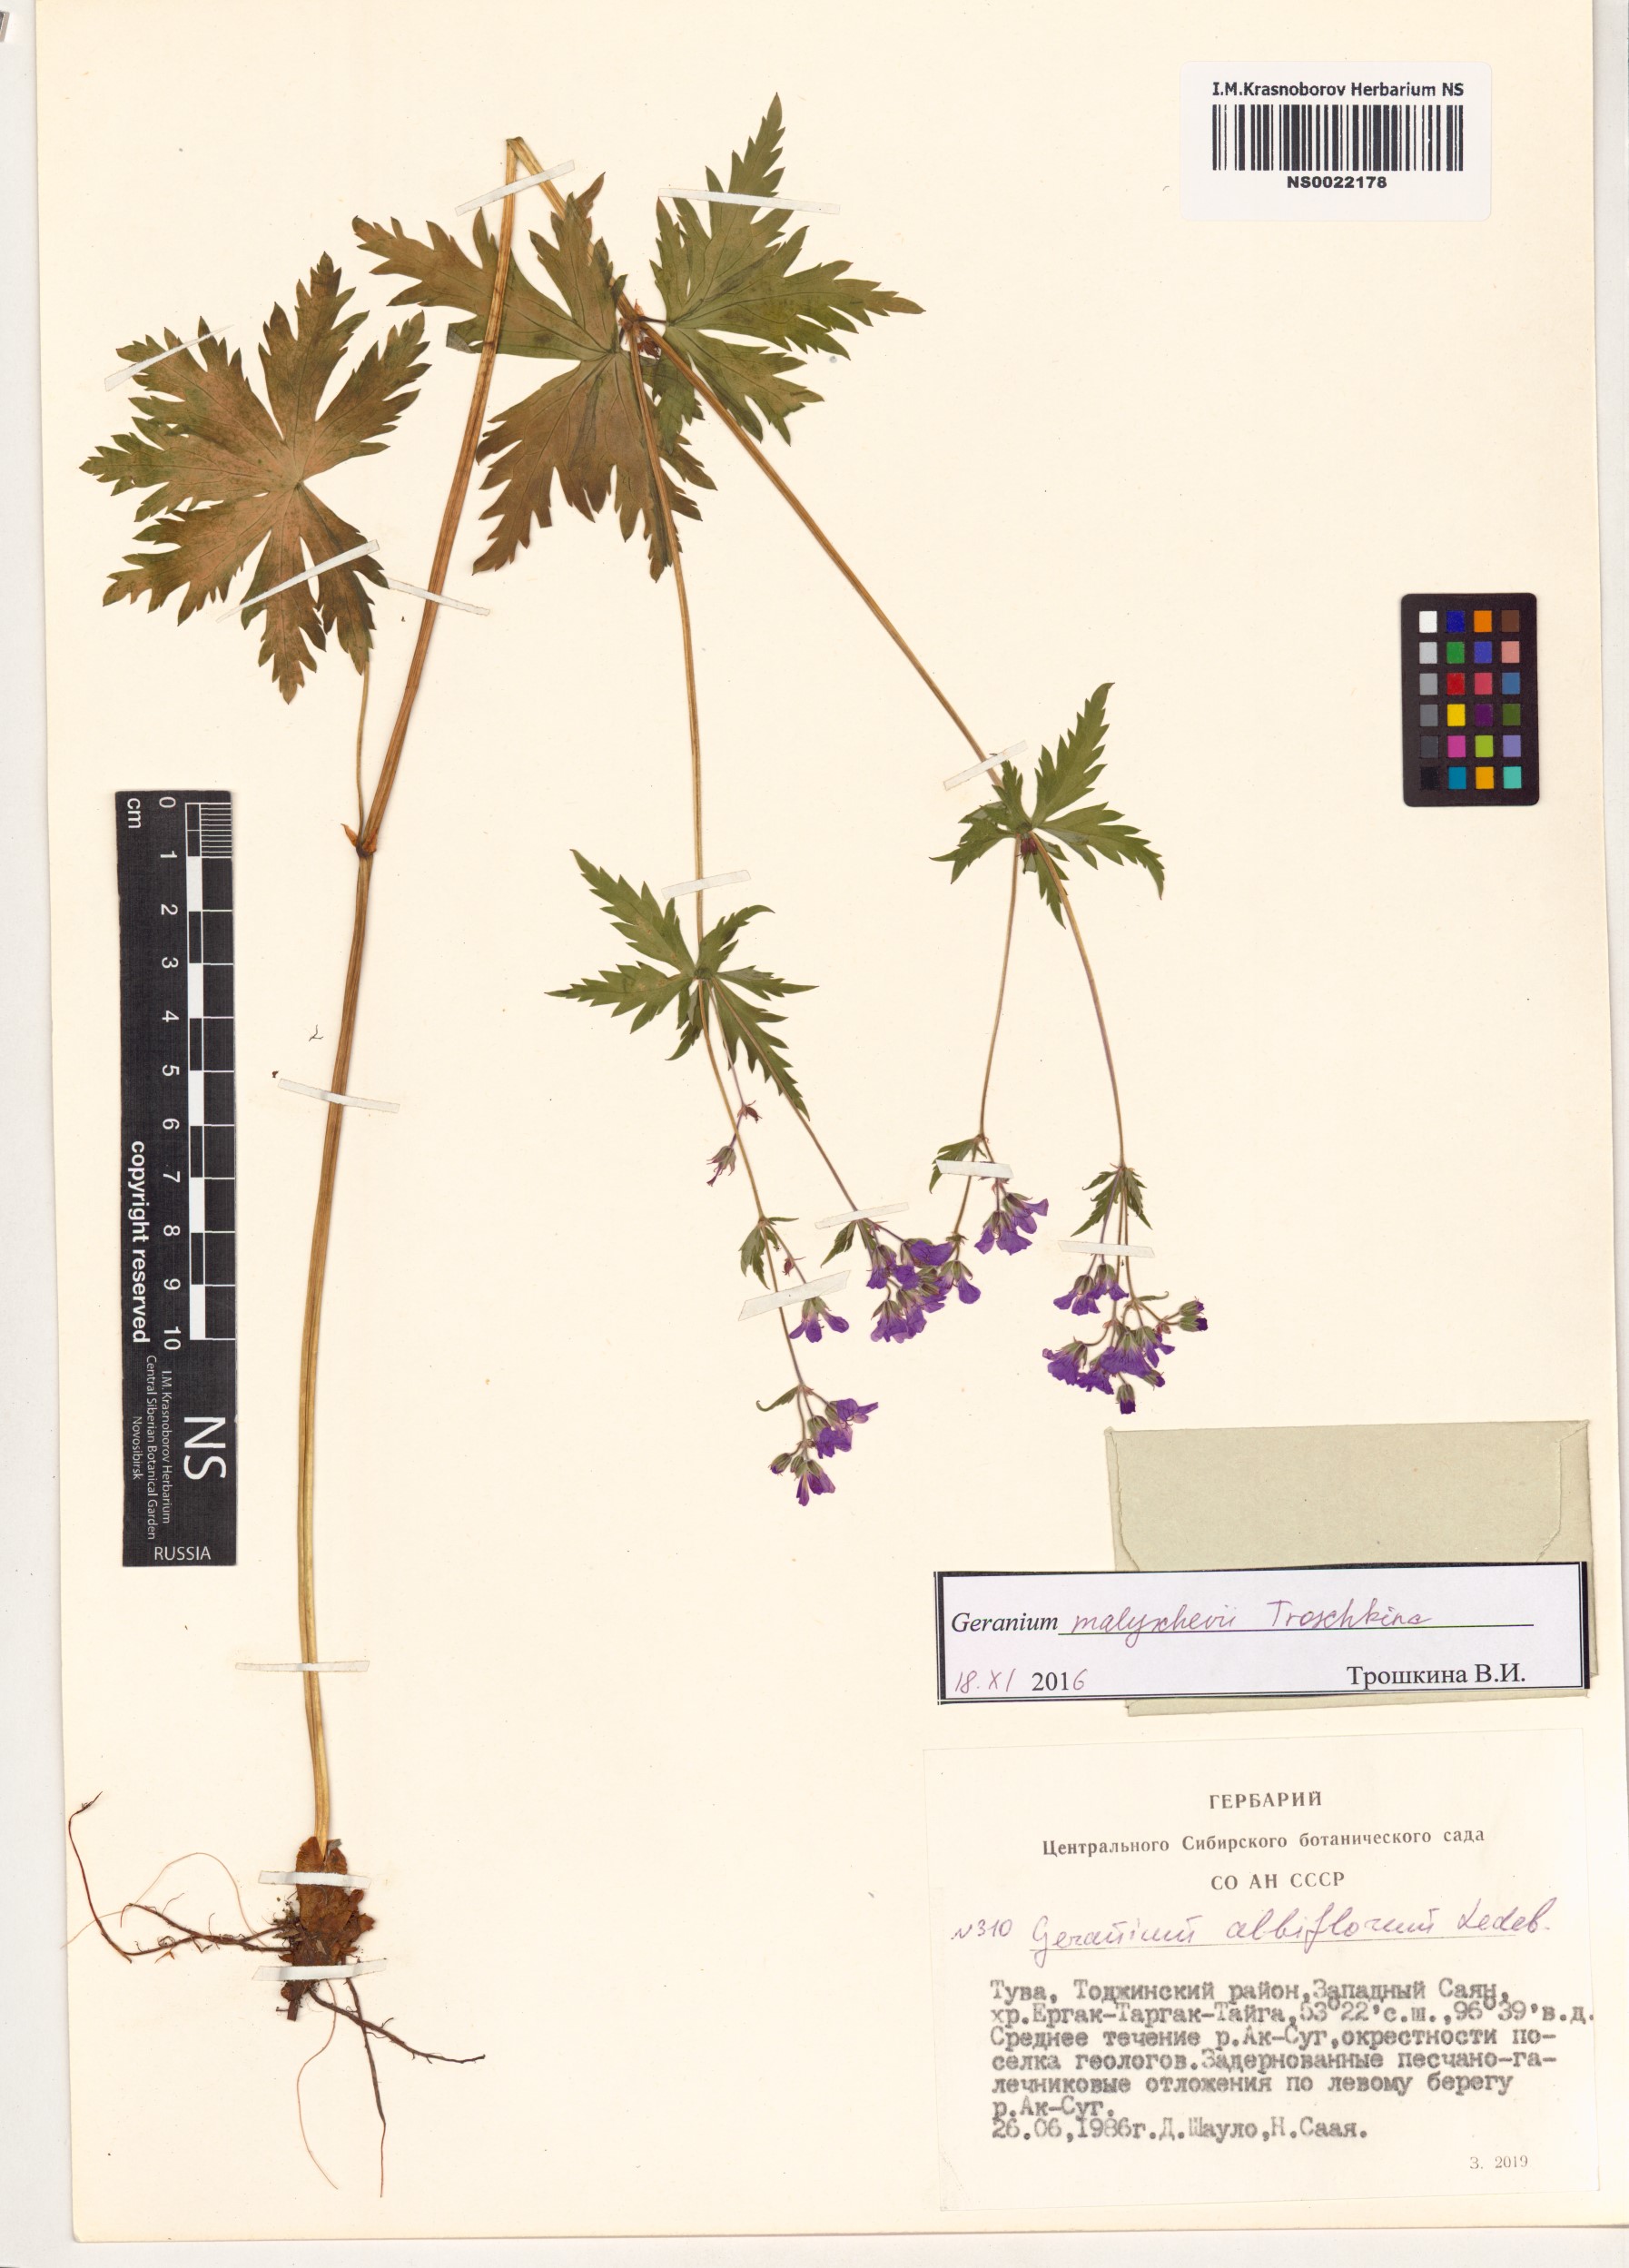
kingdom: Plantae
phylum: Tracheophyta
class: Magnoliopsida
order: Geraniales
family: Geraniaceae
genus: Geranium
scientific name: Geranium malyschevii
